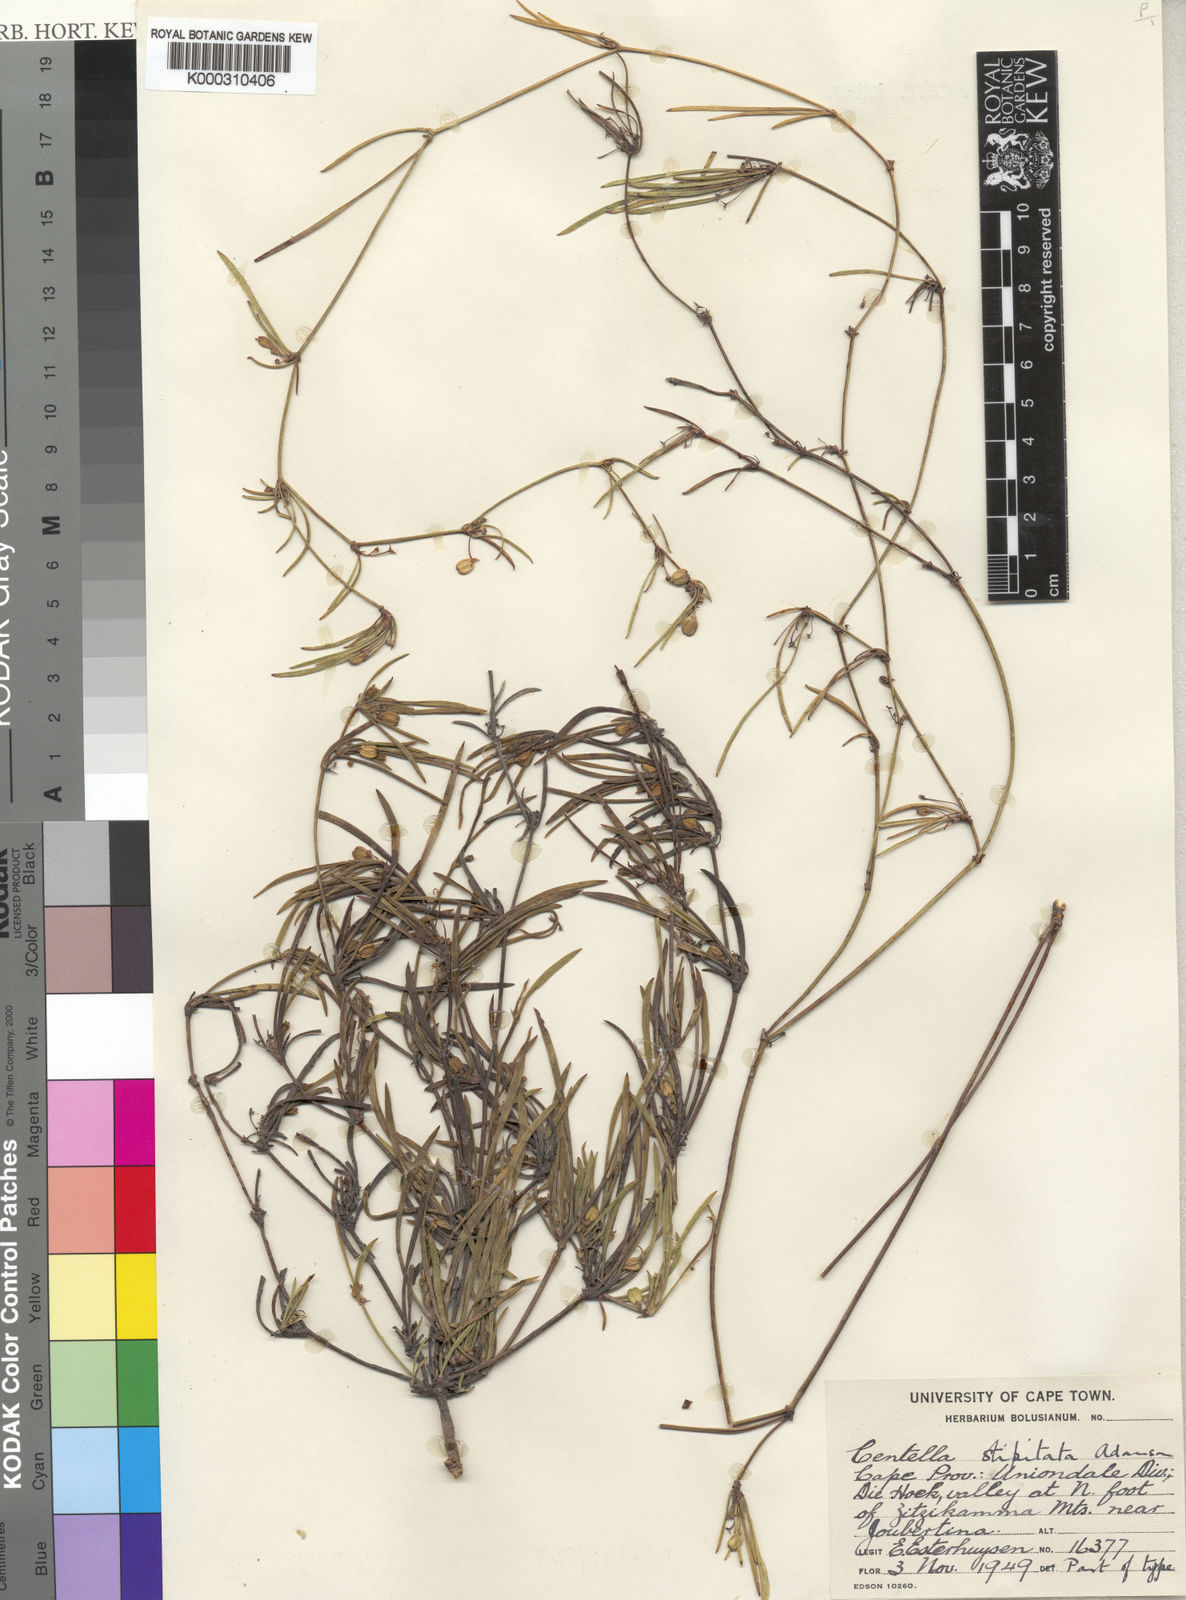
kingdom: Plantae
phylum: Tracheophyta
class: Magnoliopsida
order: Apiales
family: Apiaceae
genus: Centella
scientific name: Centella stipitata
